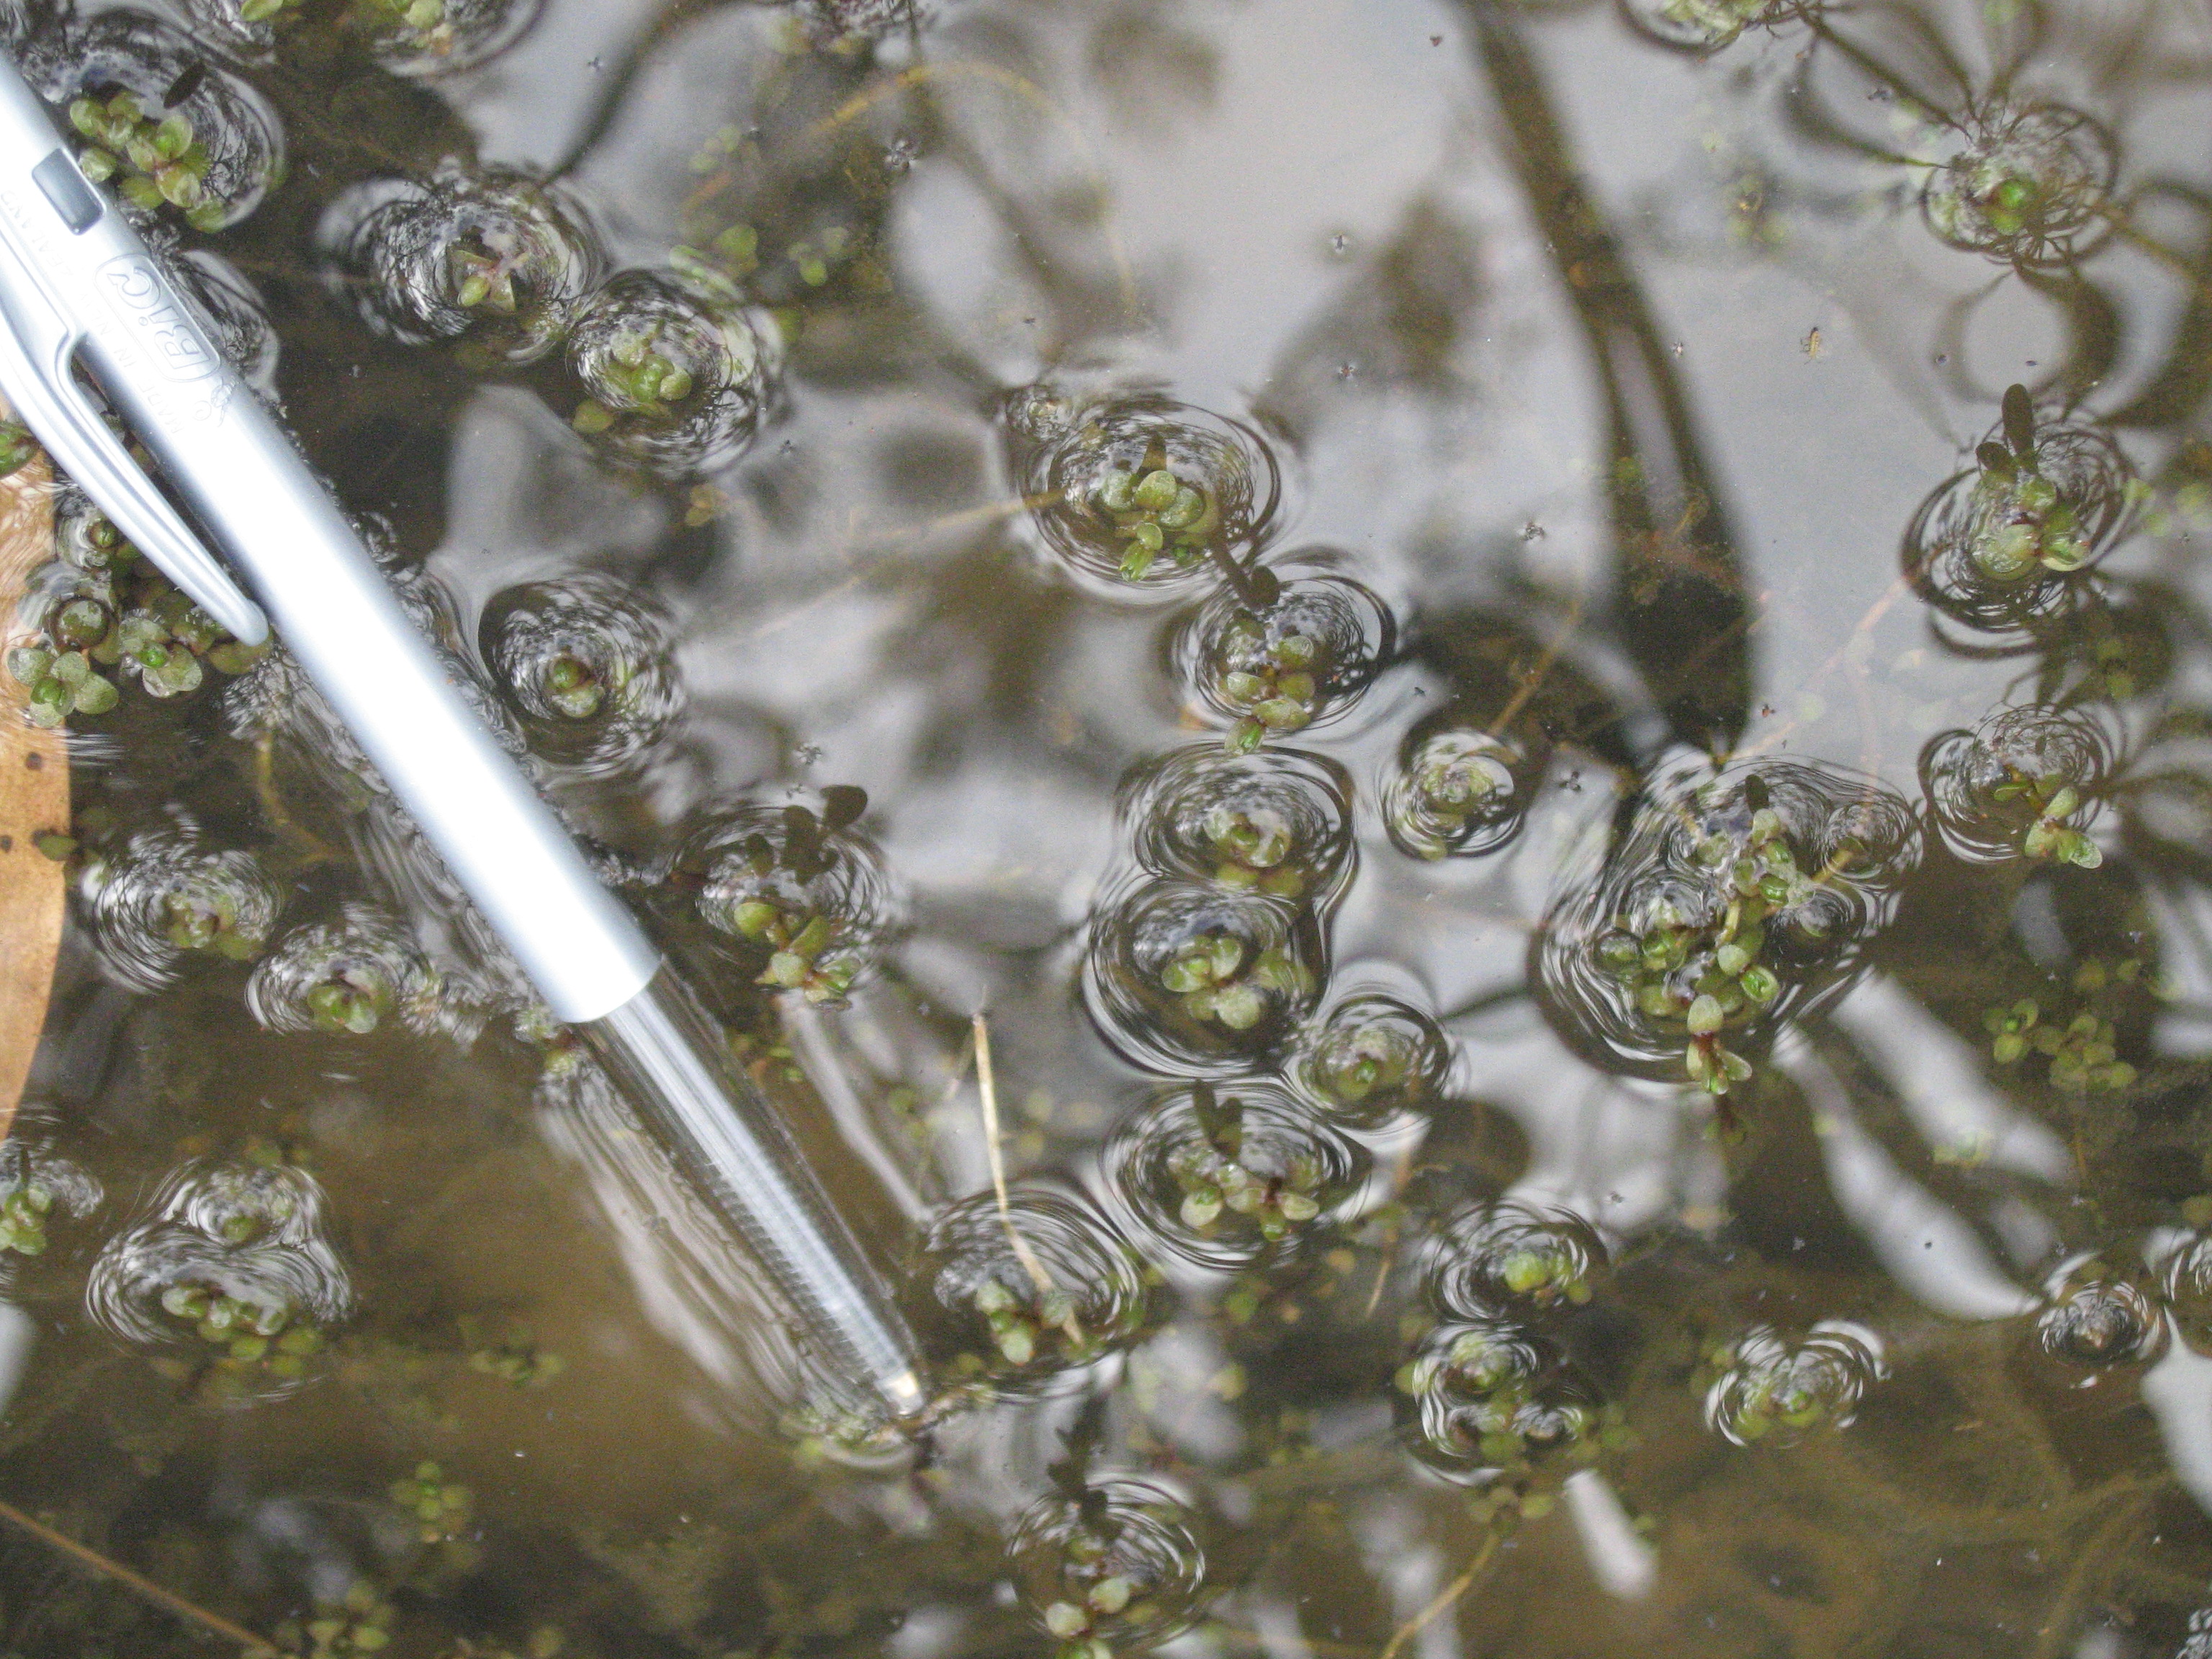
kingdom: Plantae
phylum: Tracheophyta
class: Magnoliopsida
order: Lamiales
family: Phrymaceae
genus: Thyridia
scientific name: Thyridia repens
